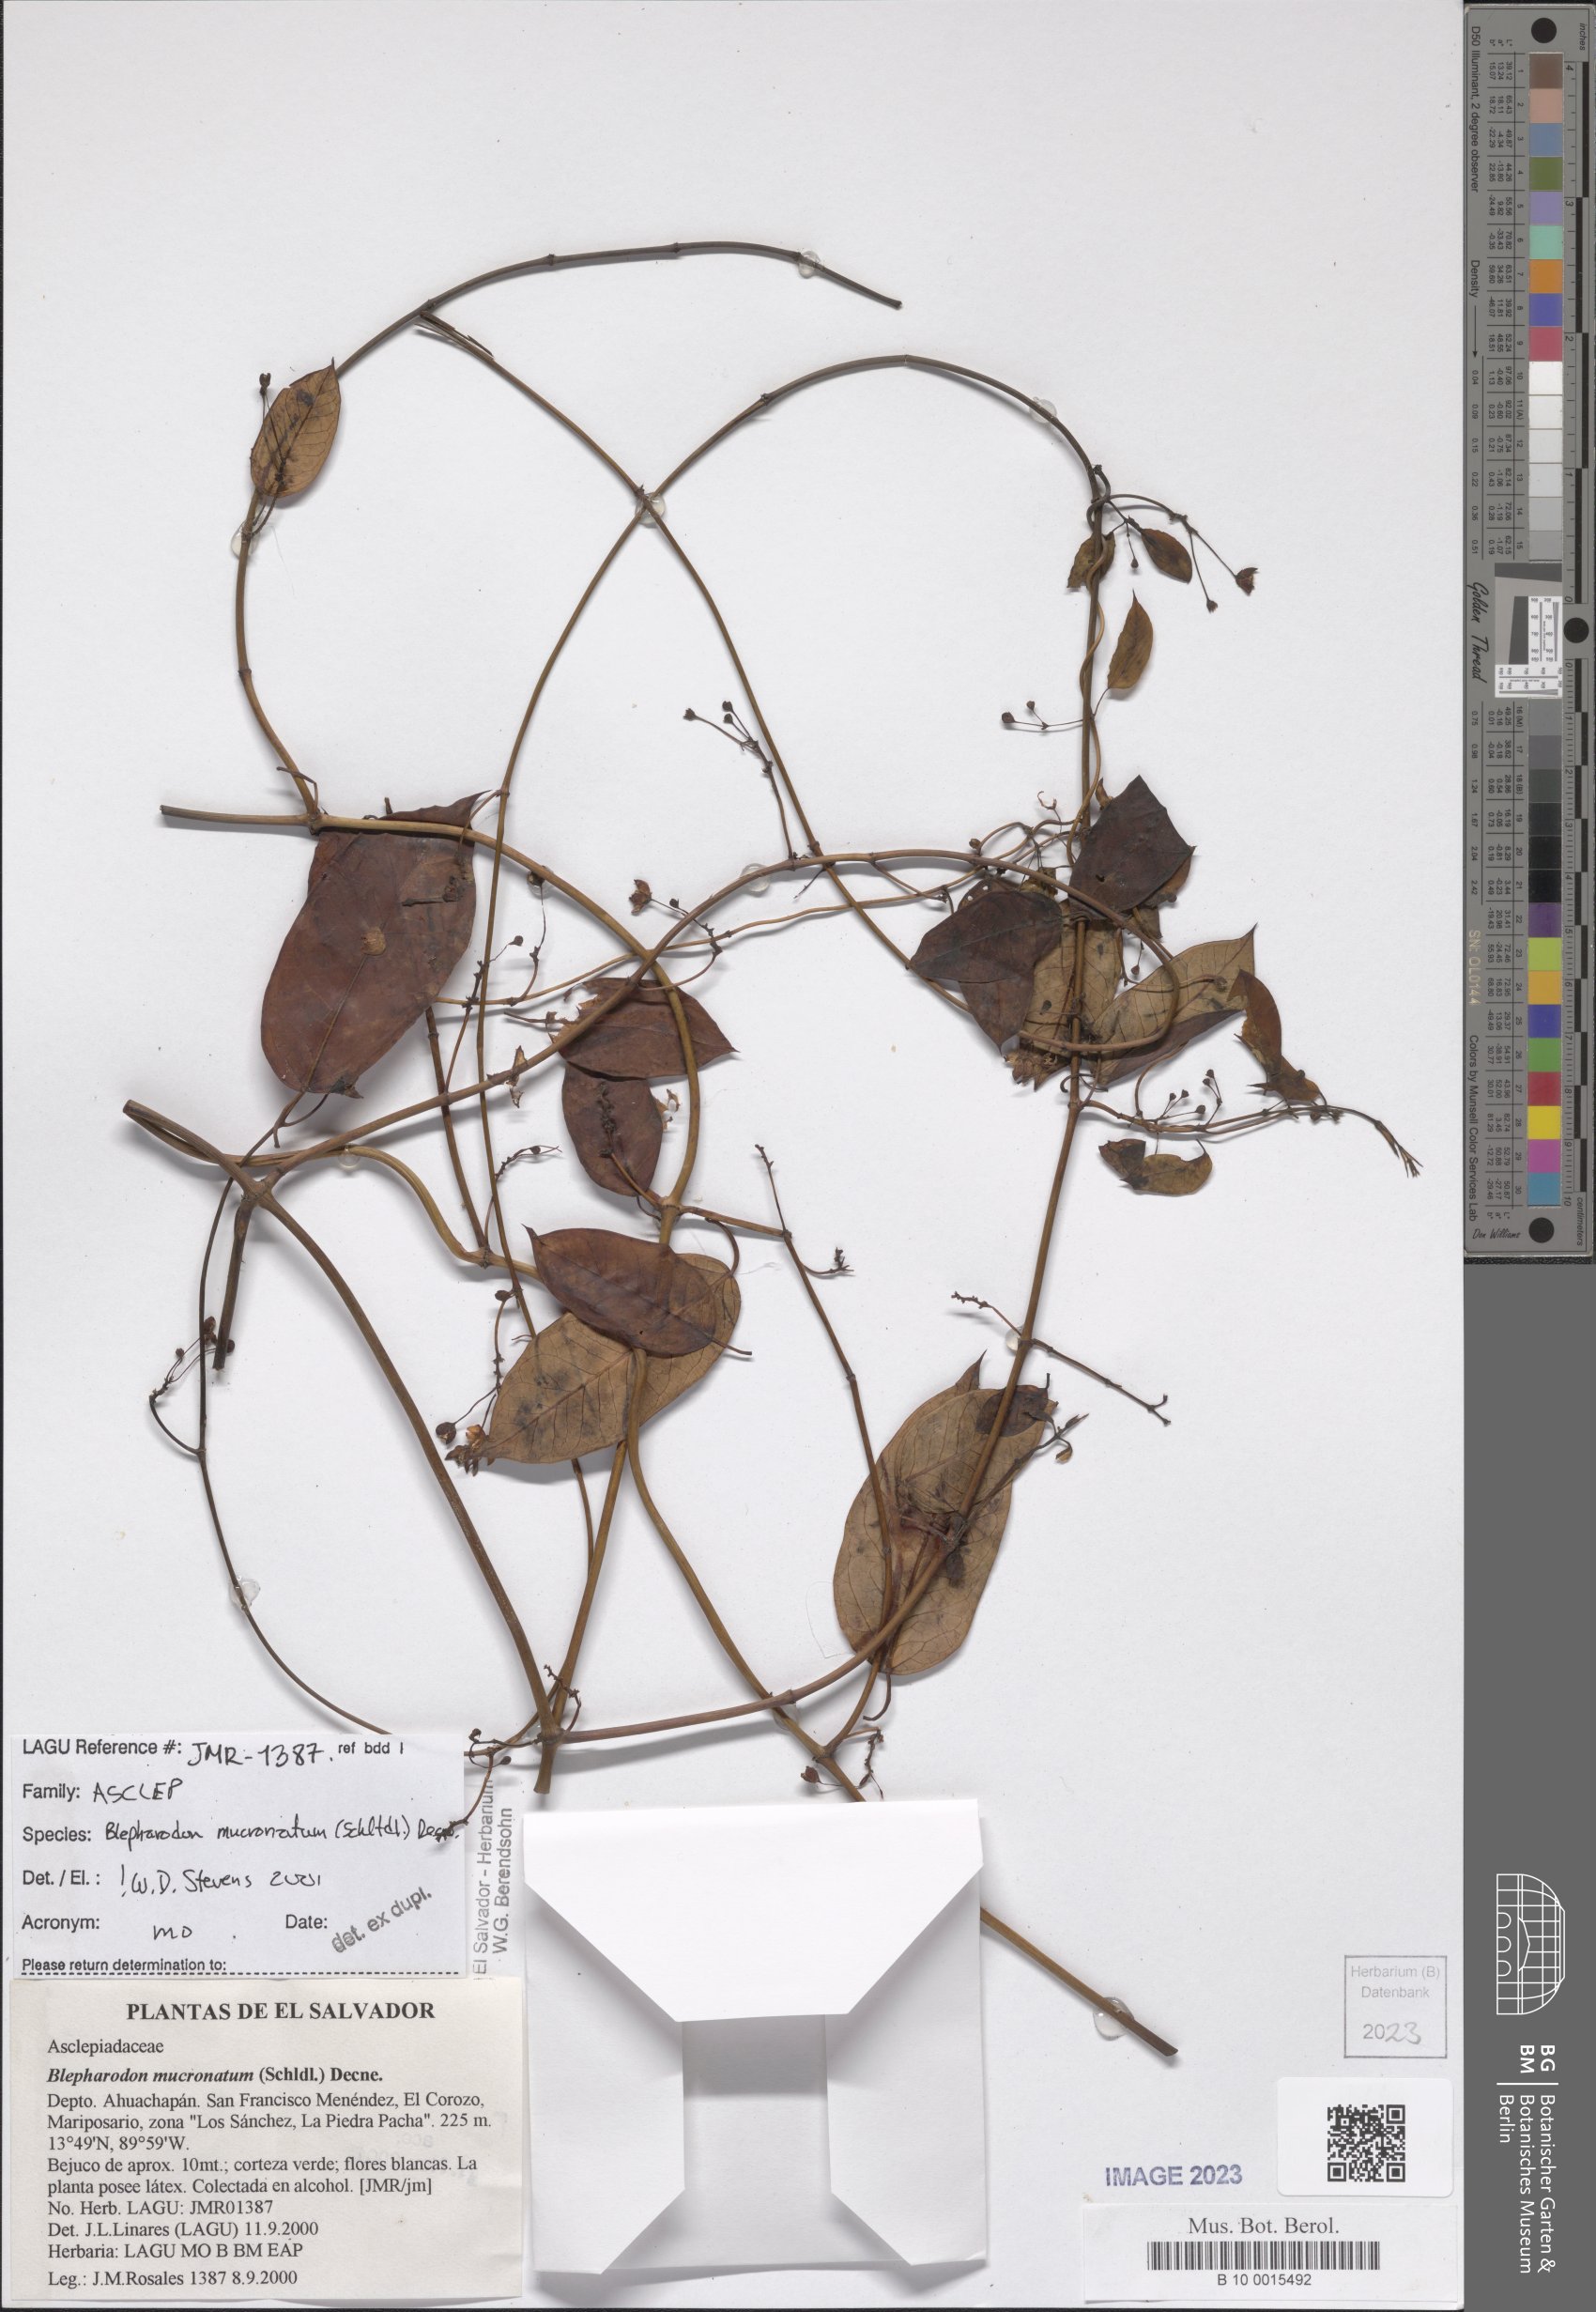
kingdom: Plantae
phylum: Tracheophyta
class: Magnoliopsida
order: Gentianales
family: Apocynaceae
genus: Vailia
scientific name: Vailia anomala
